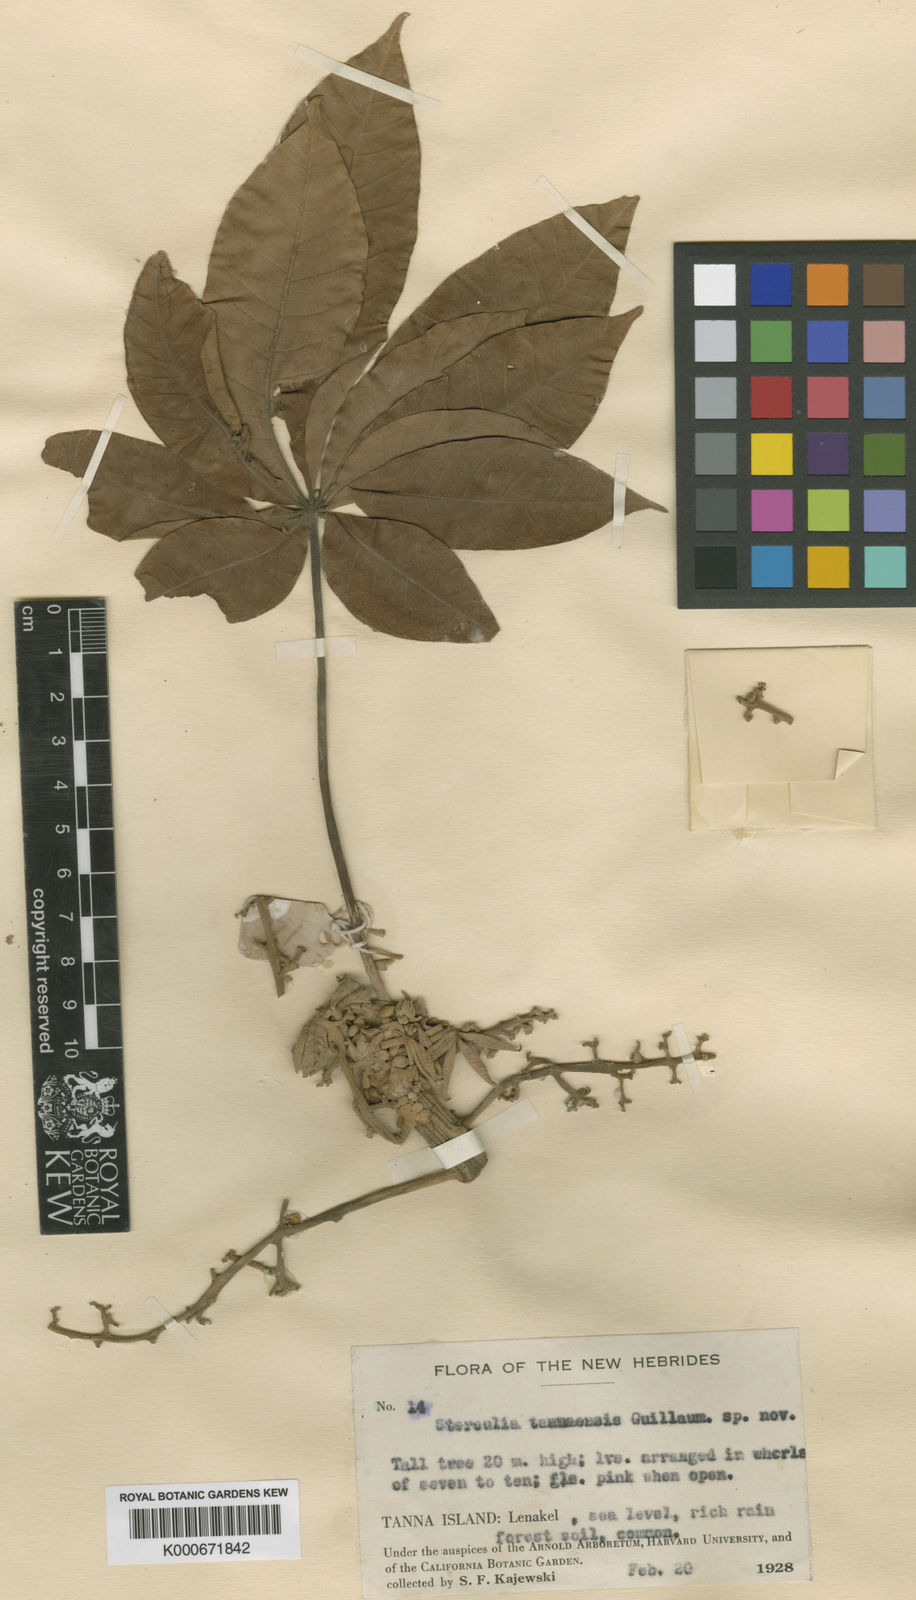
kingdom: Plantae
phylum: Tracheophyta
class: Magnoliopsida
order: Malvales
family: Malvaceae
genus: Sterculia
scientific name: Sterculia tannaensis
